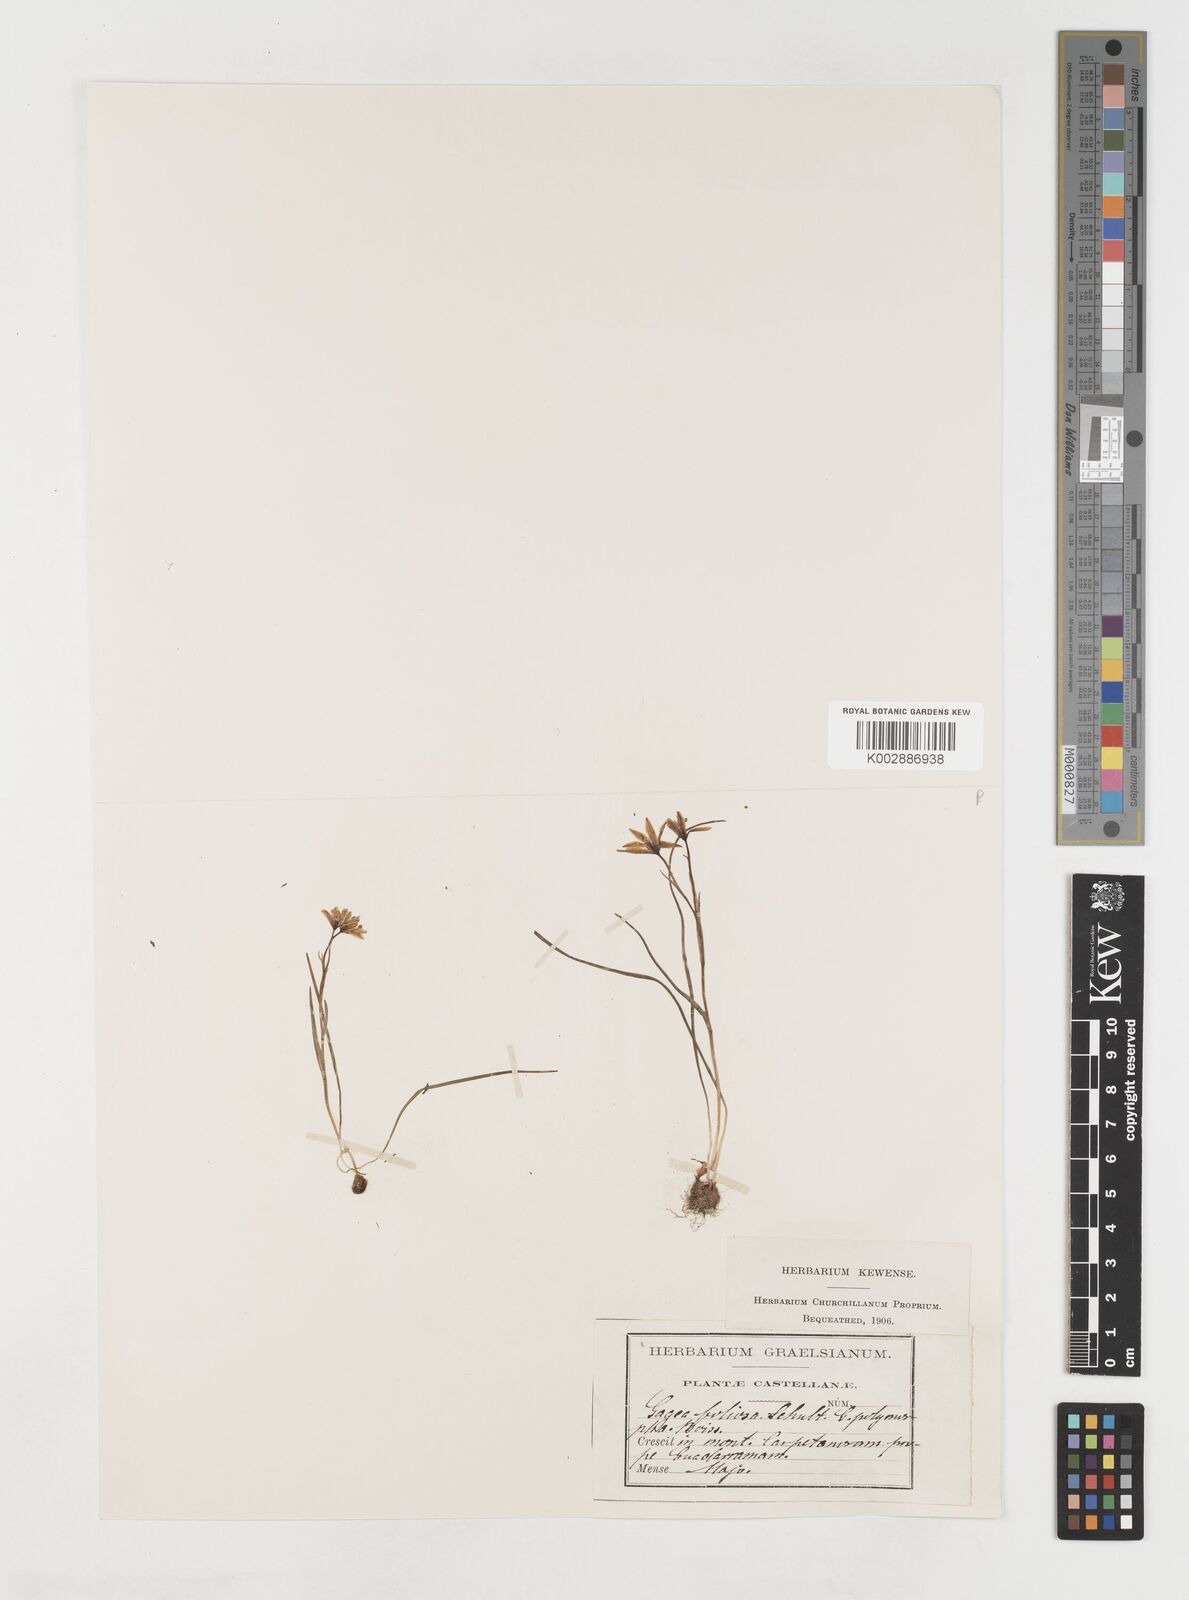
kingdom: Plantae
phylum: Tracheophyta
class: Liliopsida
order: Liliales
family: Liliaceae
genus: Gagea
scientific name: Gagea foliosa
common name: Leafy gagea
